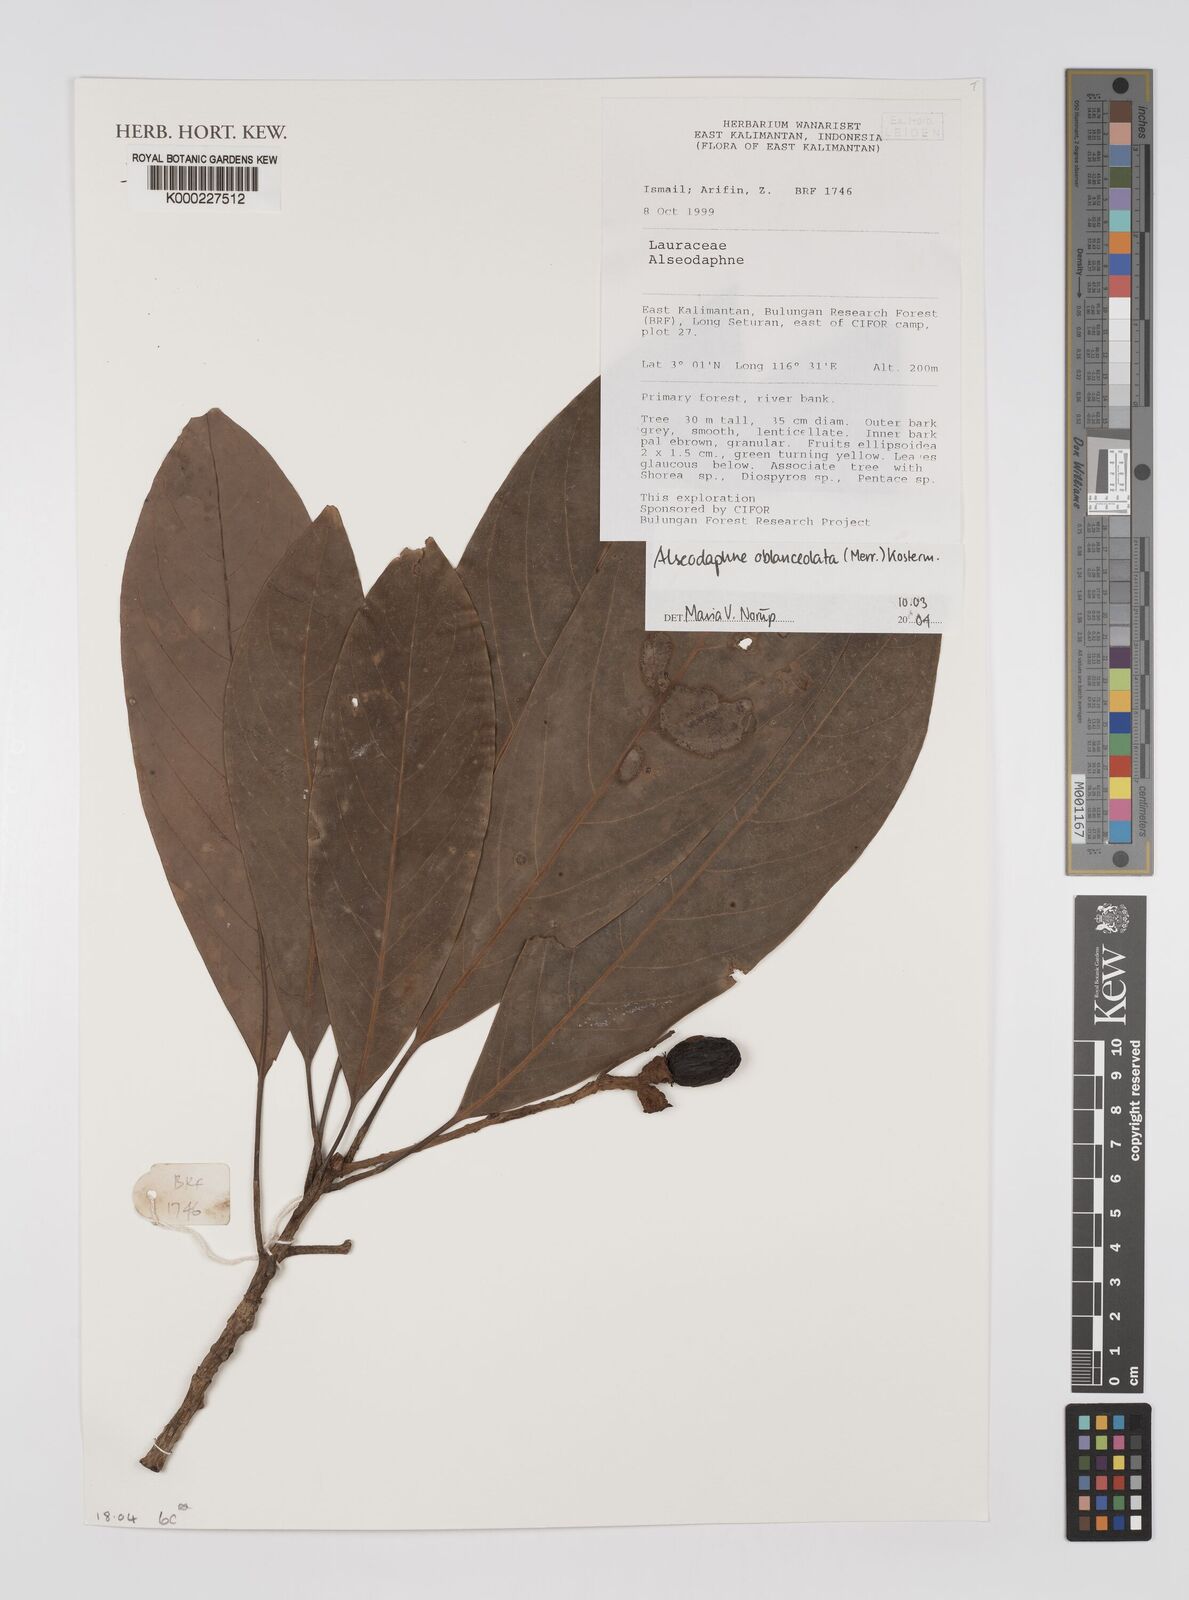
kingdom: Plantae
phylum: Tracheophyta
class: Magnoliopsida
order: Laurales
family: Lauraceae
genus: Alseodaphne
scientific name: Alseodaphne oblanceolata
